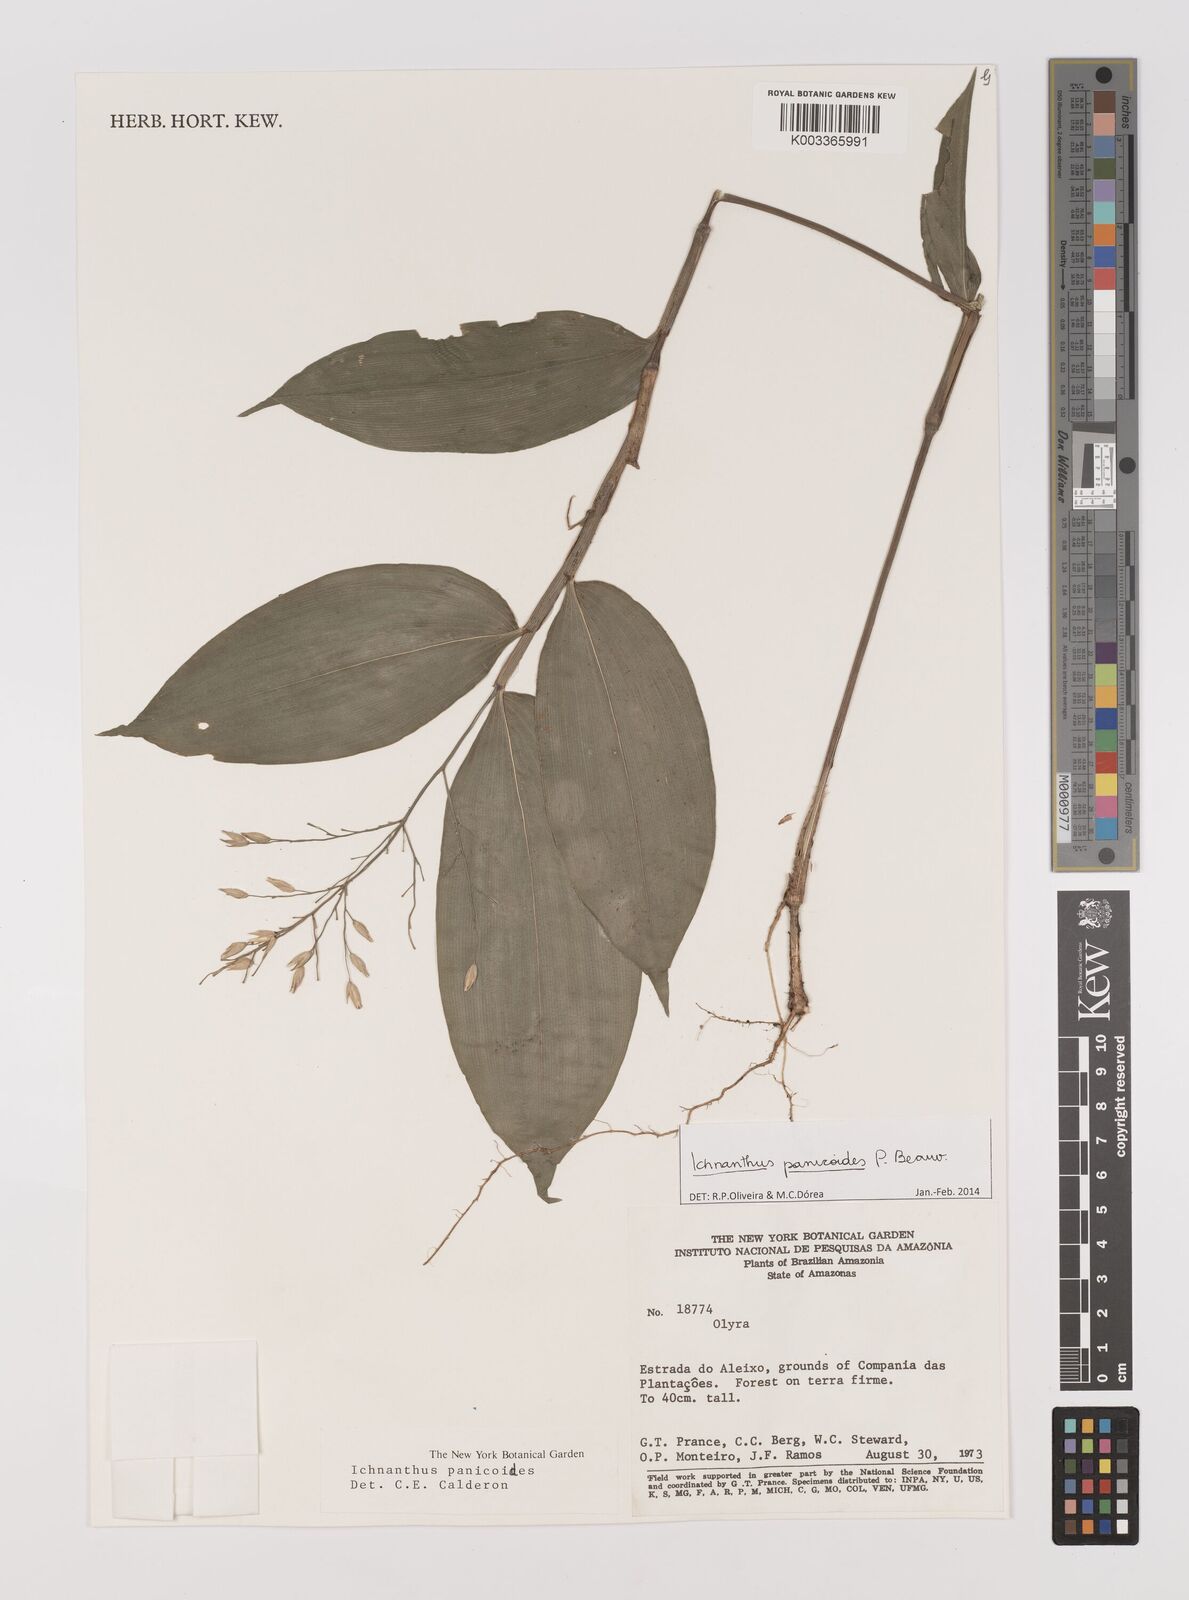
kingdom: Plantae
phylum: Tracheophyta
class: Liliopsida
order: Poales
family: Poaceae
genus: Ichnanthus
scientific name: Ichnanthus panicoides
